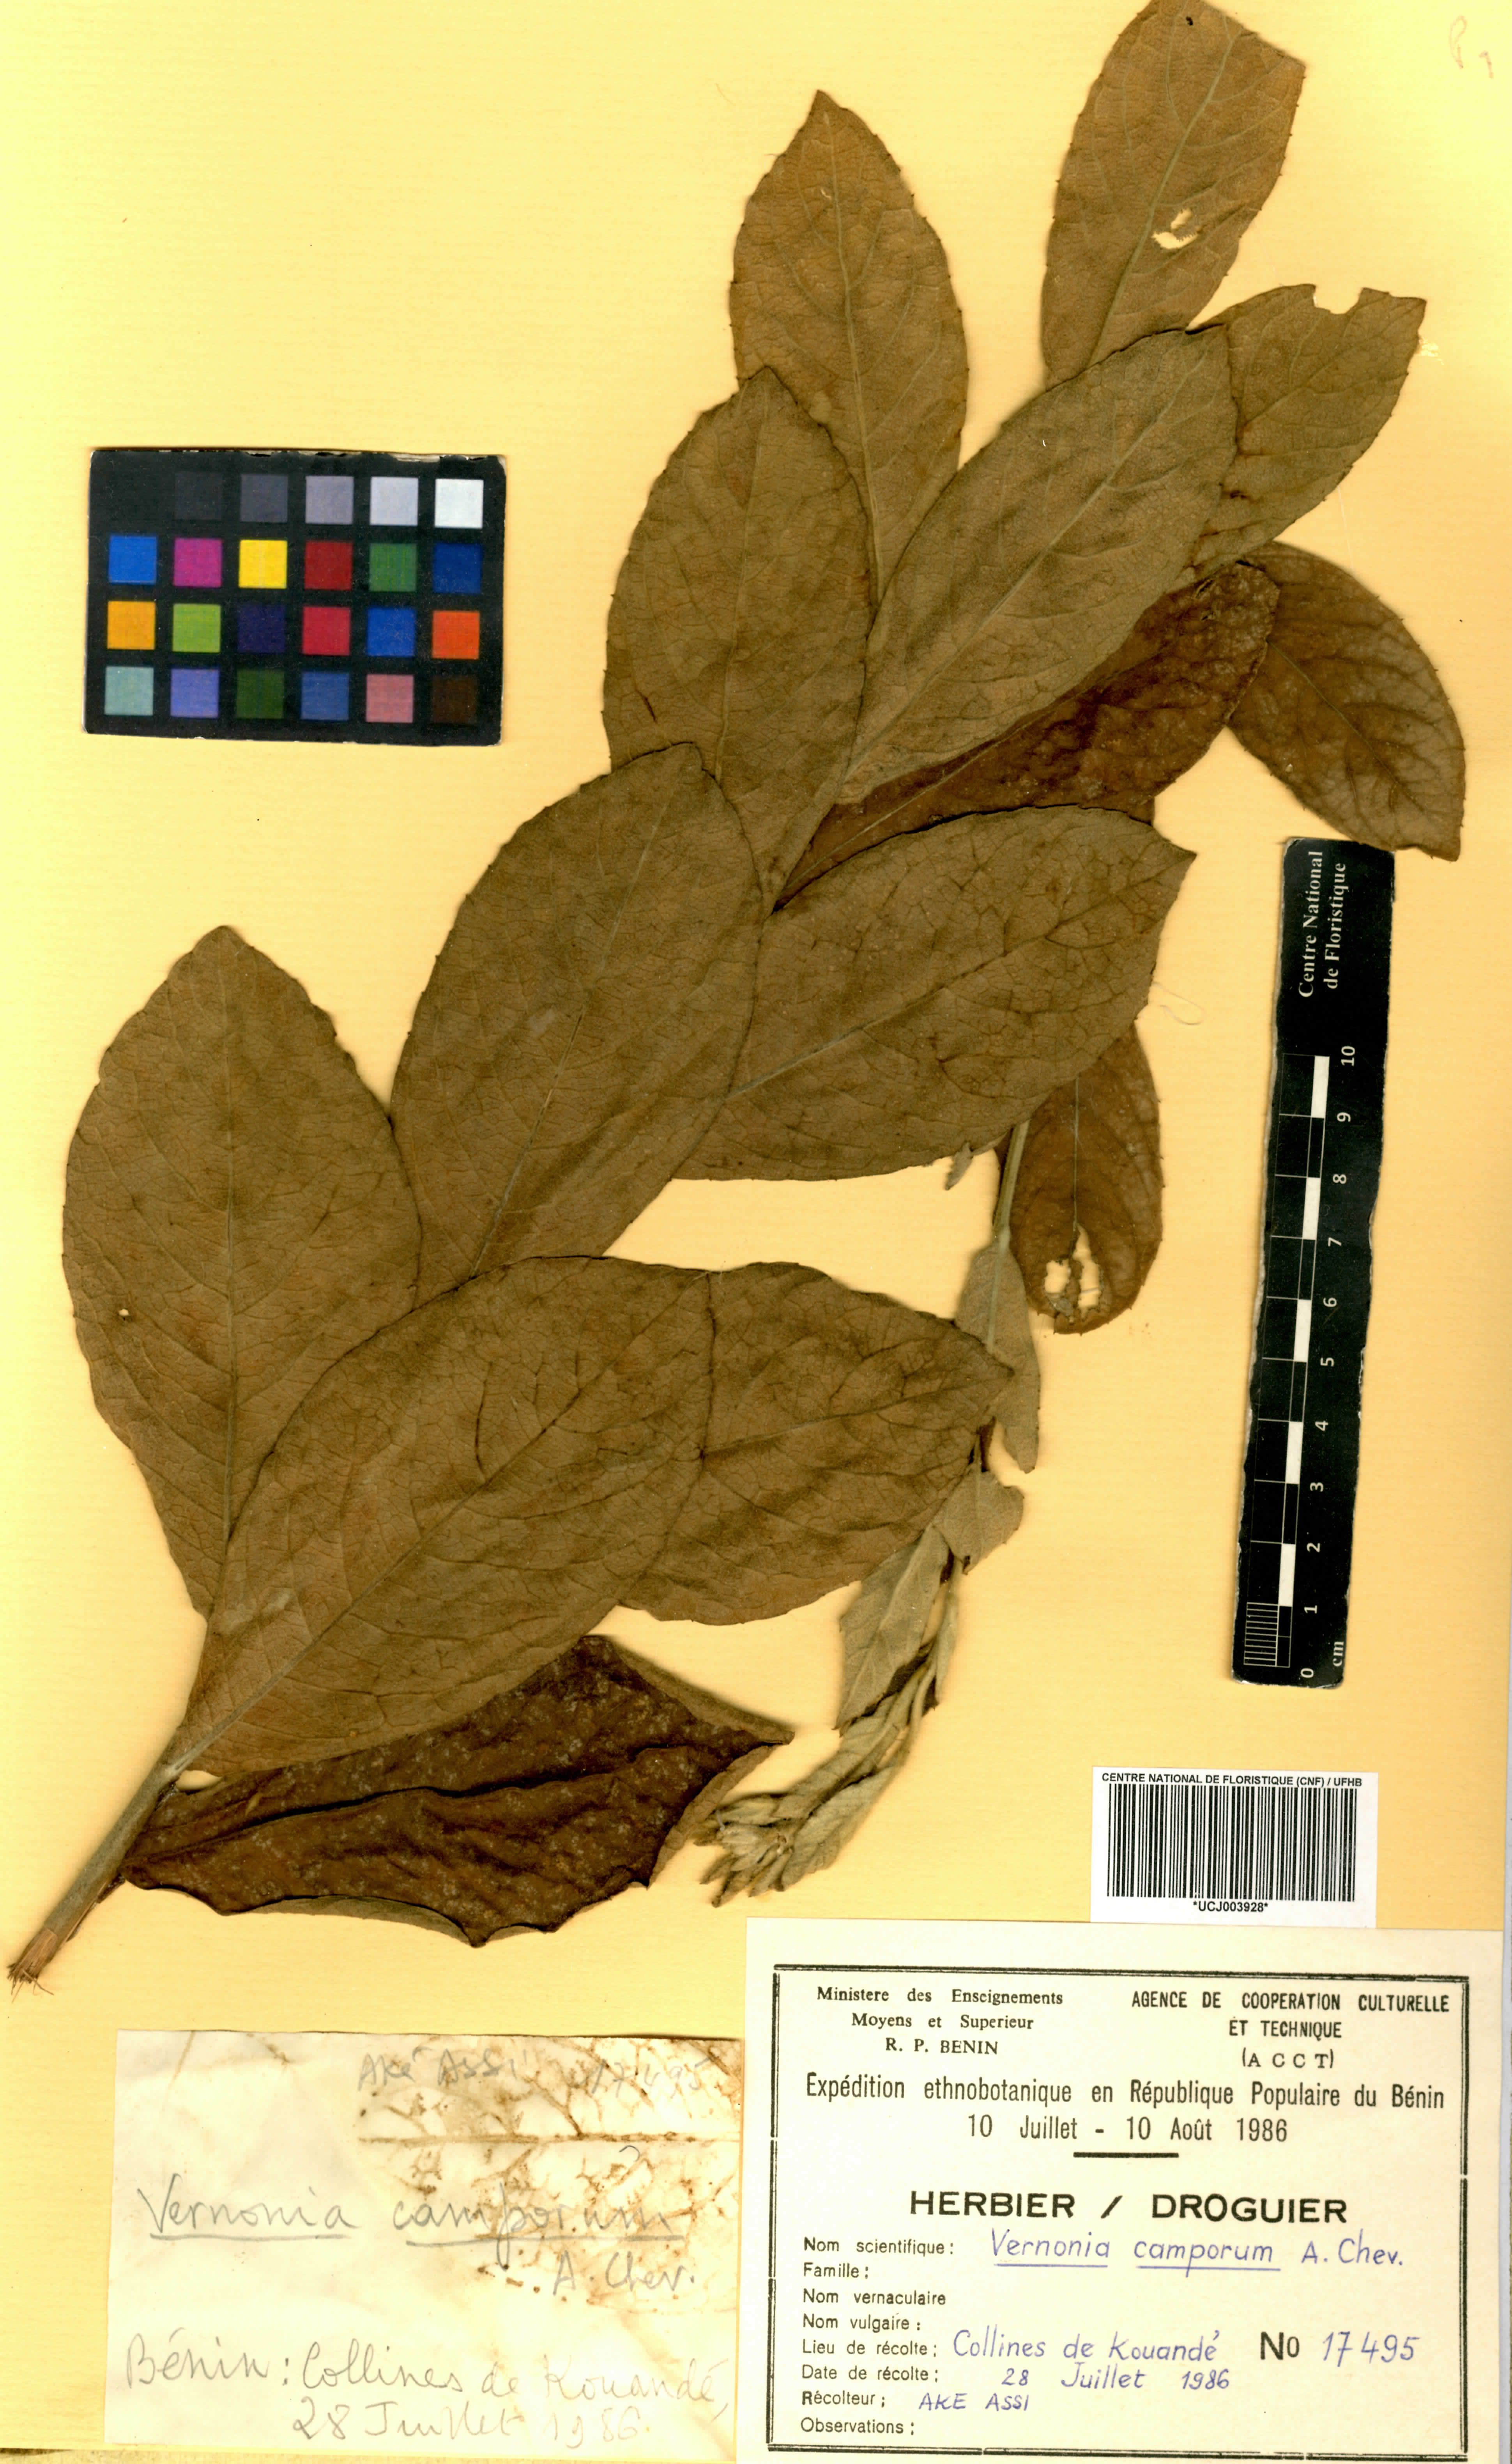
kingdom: Plantae
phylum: Tracheophyta
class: Magnoliopsida
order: Asterales
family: Asteraceae
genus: Vernoniastrum
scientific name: Vernoniastrum camporum
